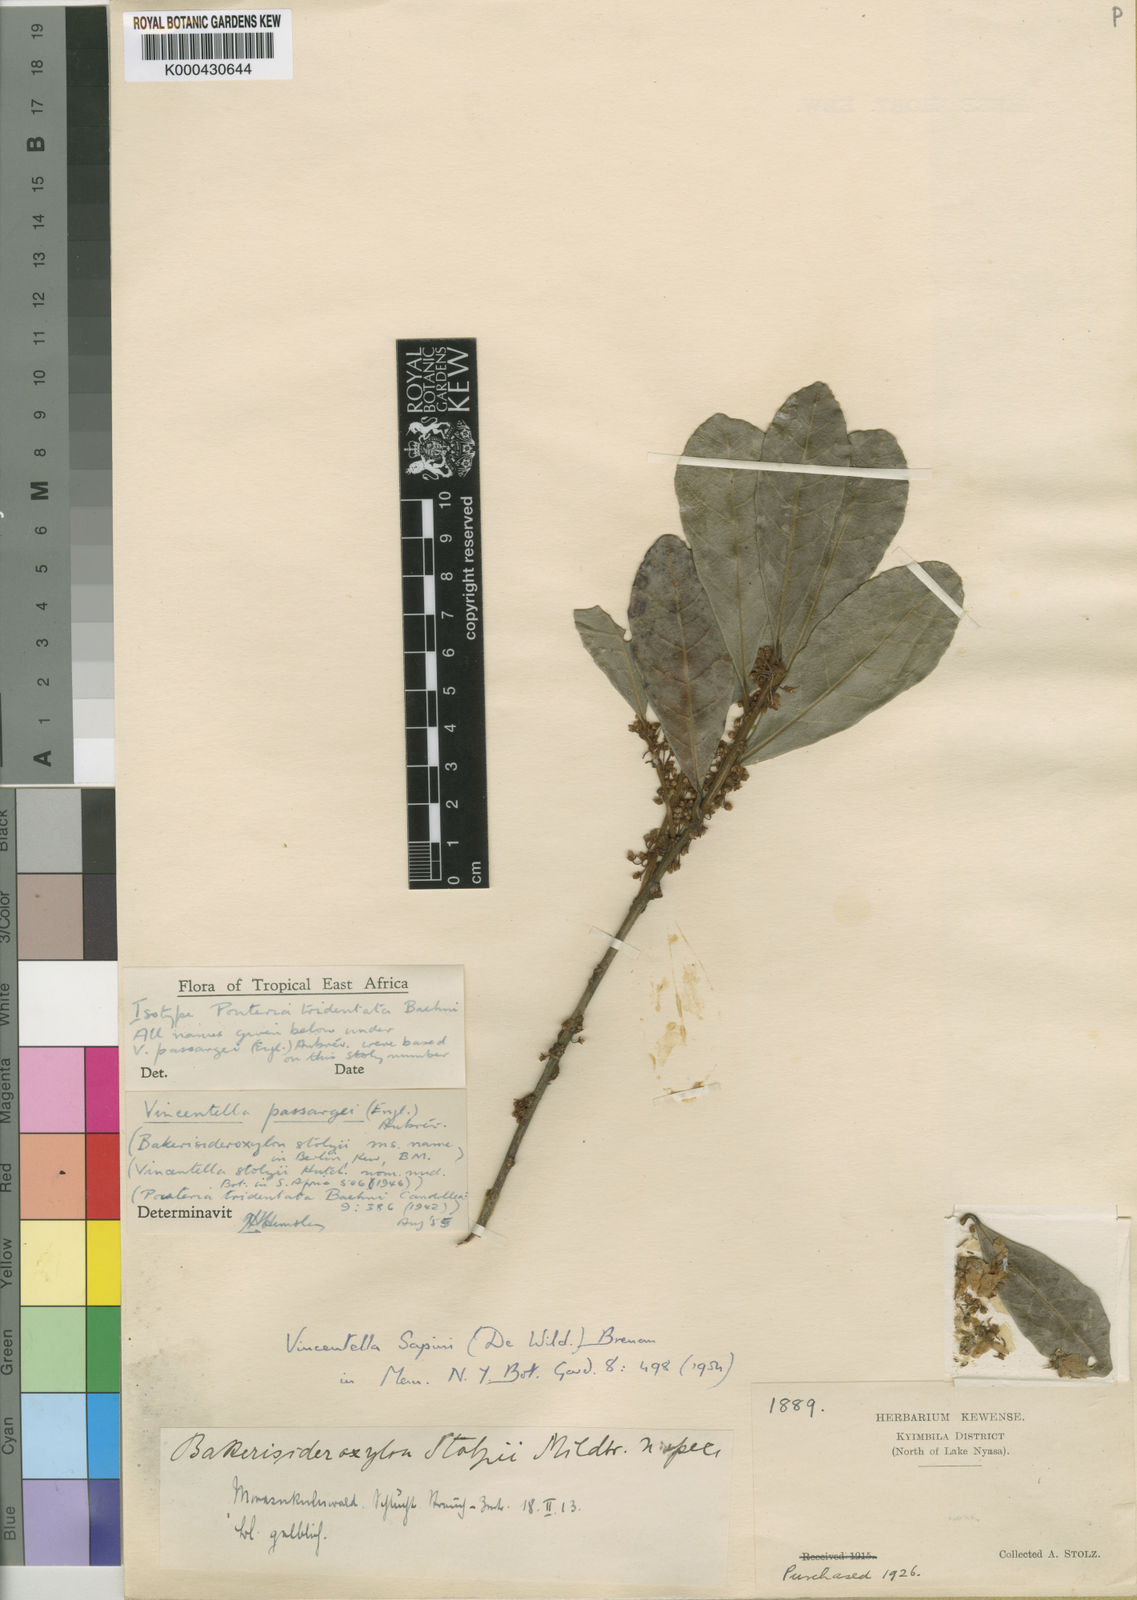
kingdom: Plantae
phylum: Tracheophyta
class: Magnoliopsida
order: Ericales
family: Sapotaceae
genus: Synsepalum
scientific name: Synsepalum
